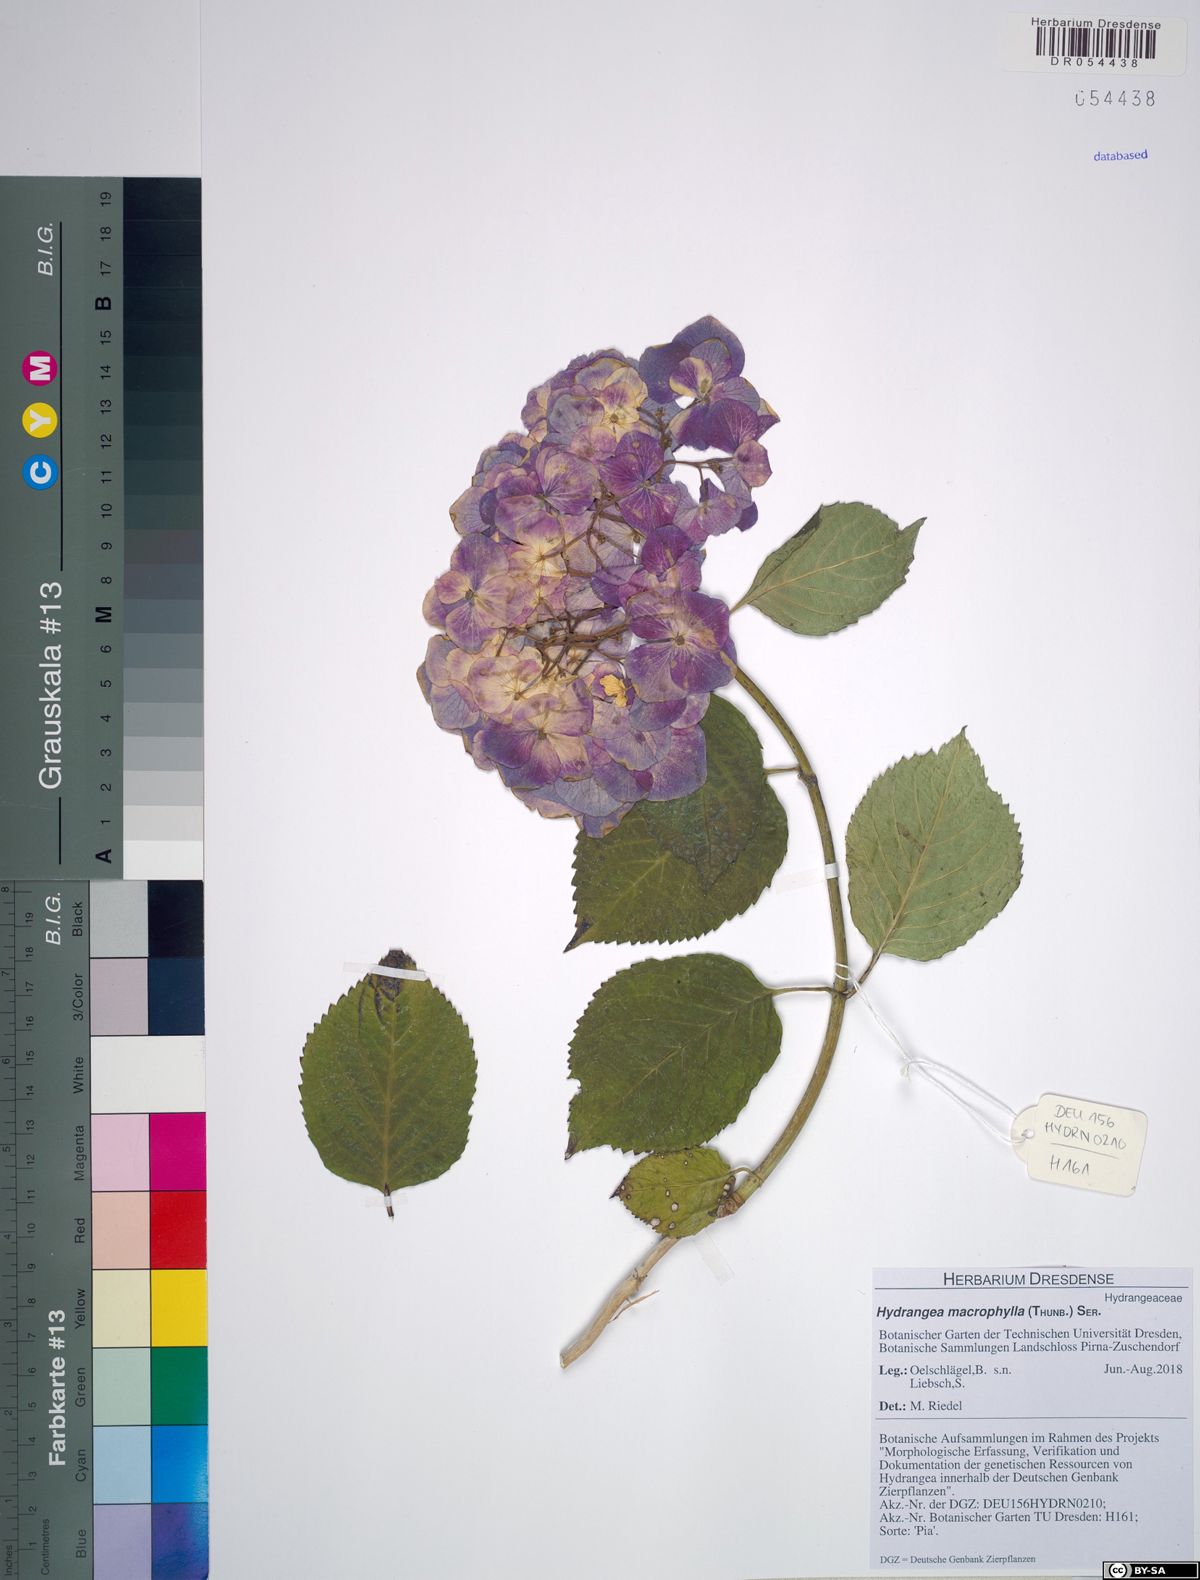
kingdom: Plantae
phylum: Tracheophyta
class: Magnoliopsida
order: Cornales
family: Hydrangeaceae
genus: Hydrangea
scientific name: Hydrangea macrophylla
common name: Hydrangea
